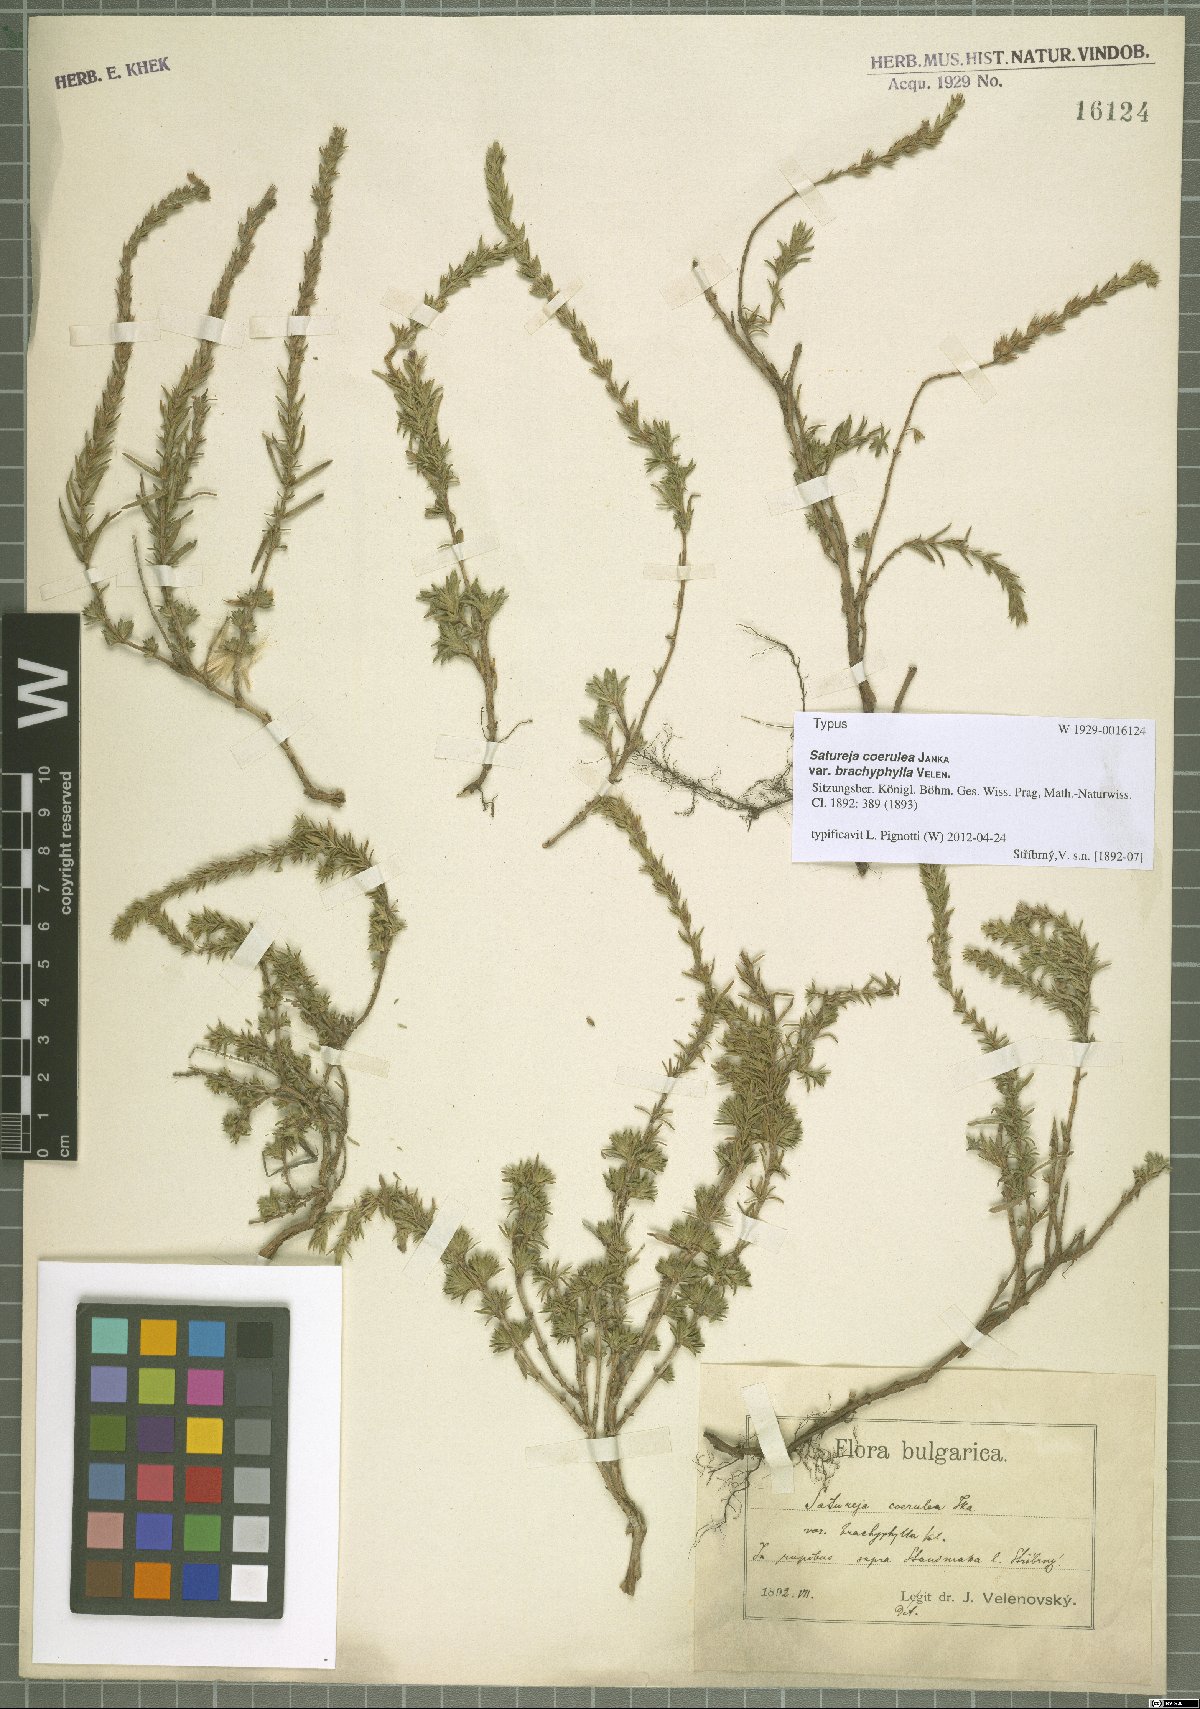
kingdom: Plantae
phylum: Tracheophyta
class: Magnoliopsida
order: Lamiales
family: Lamiaceae
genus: Satureja
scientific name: Satureja coerulea
